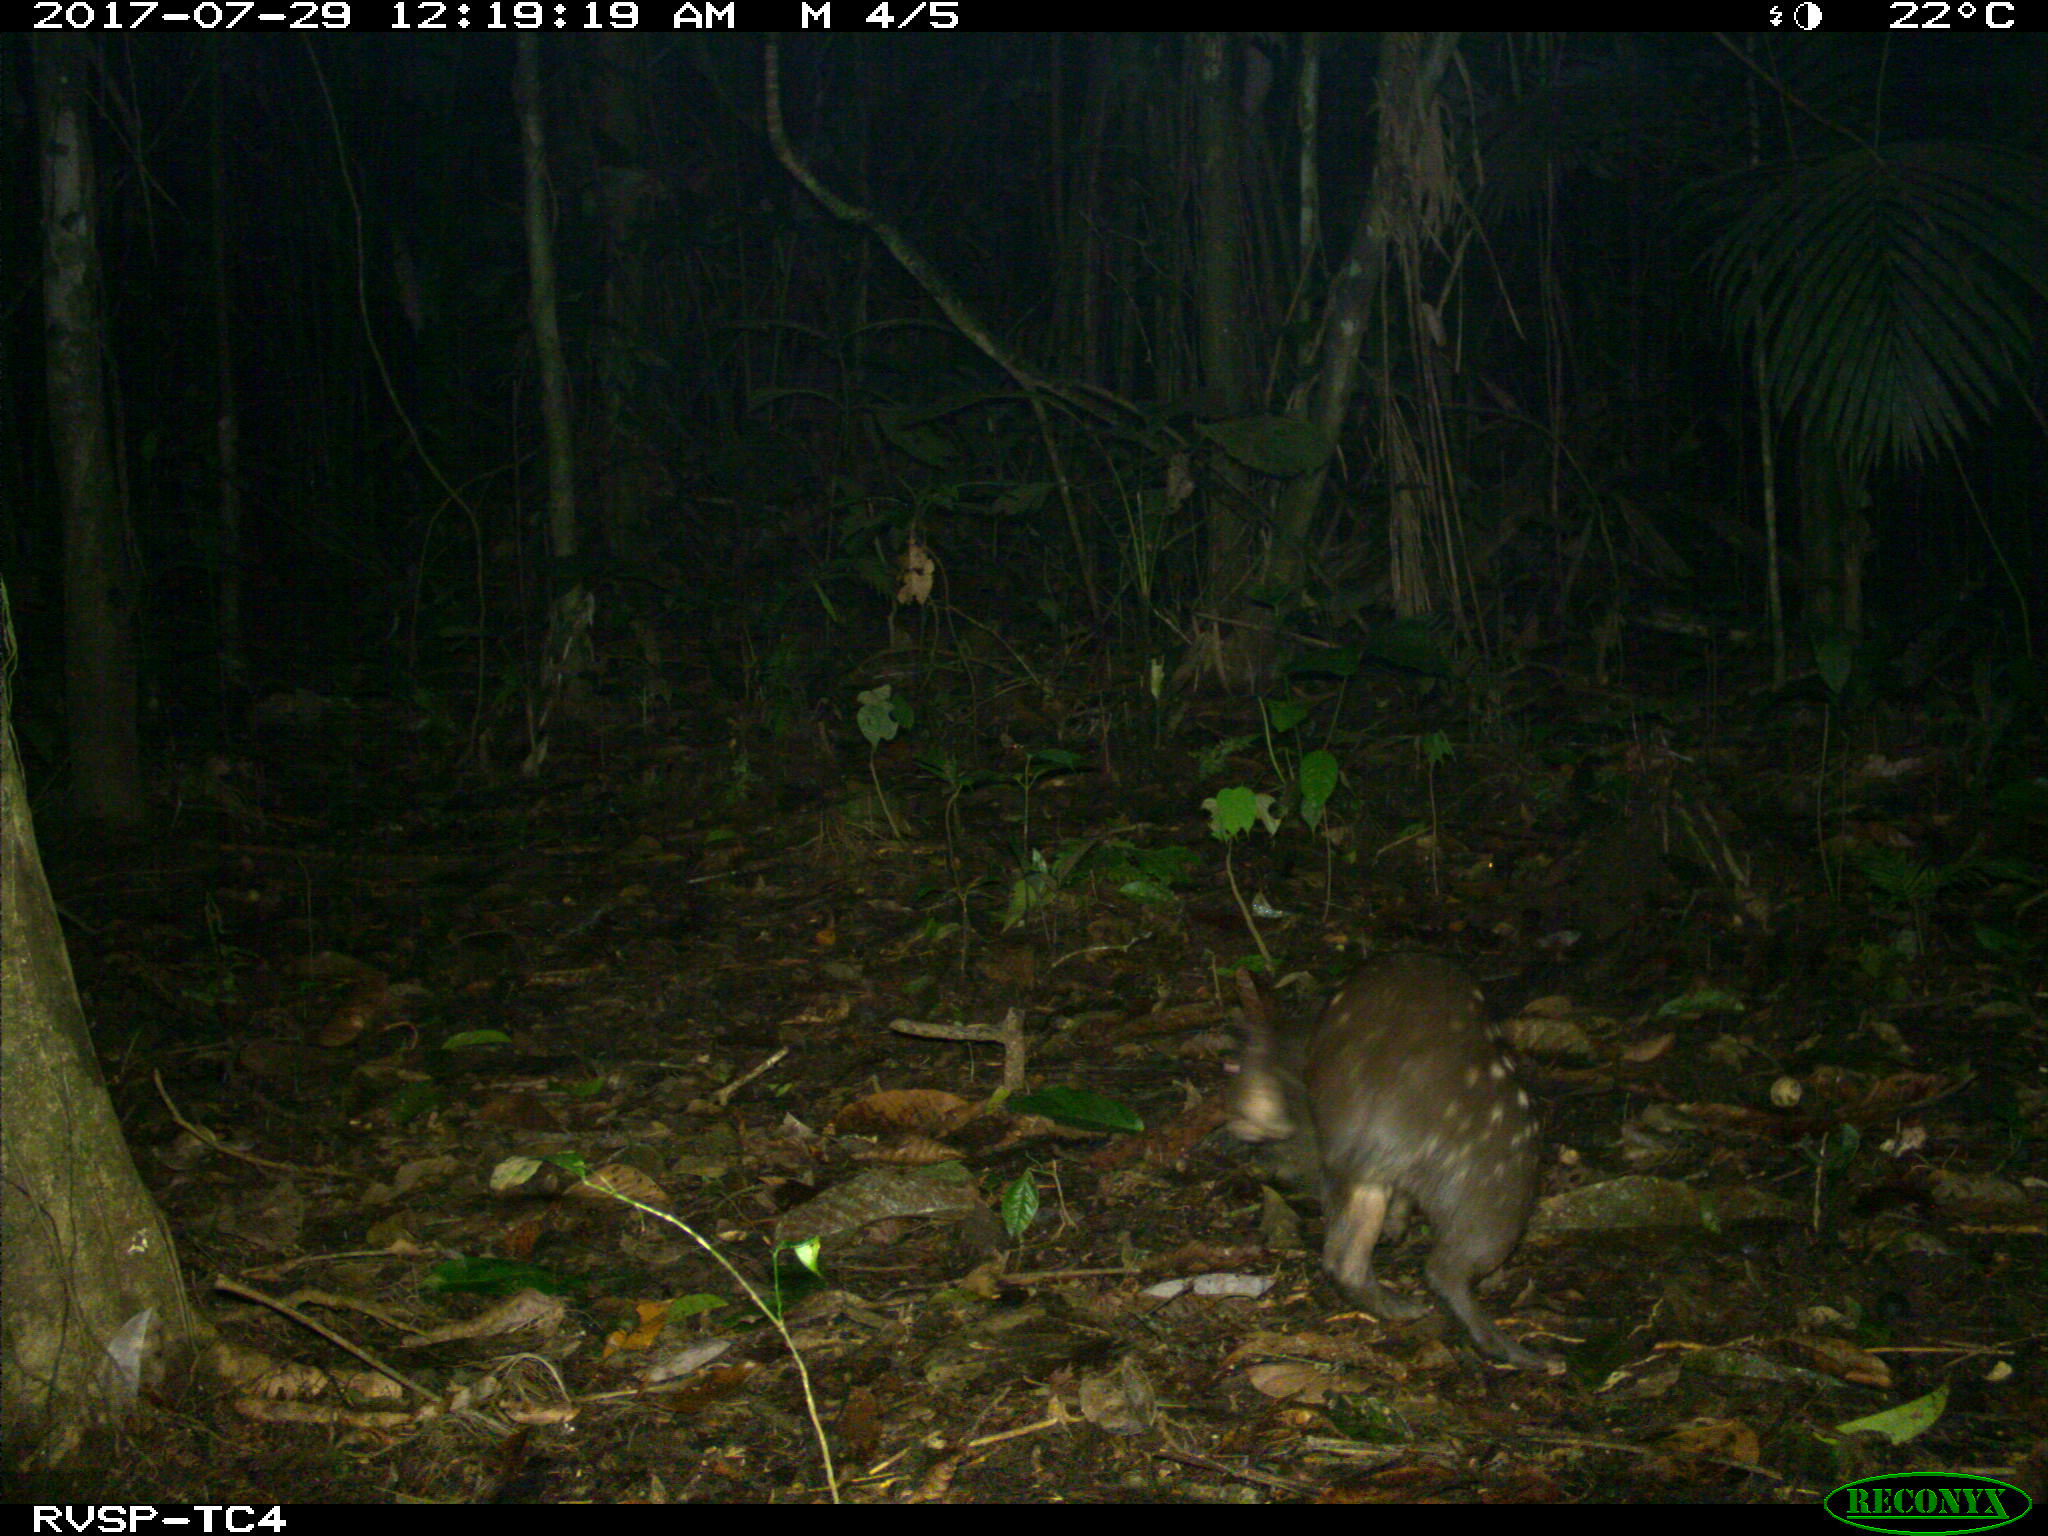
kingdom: Animalia
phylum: Chordata
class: Mammalia
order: Rodentia
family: Cuniculidae
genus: Cuniculus
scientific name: Cuniculus paca
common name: Lowland paca
